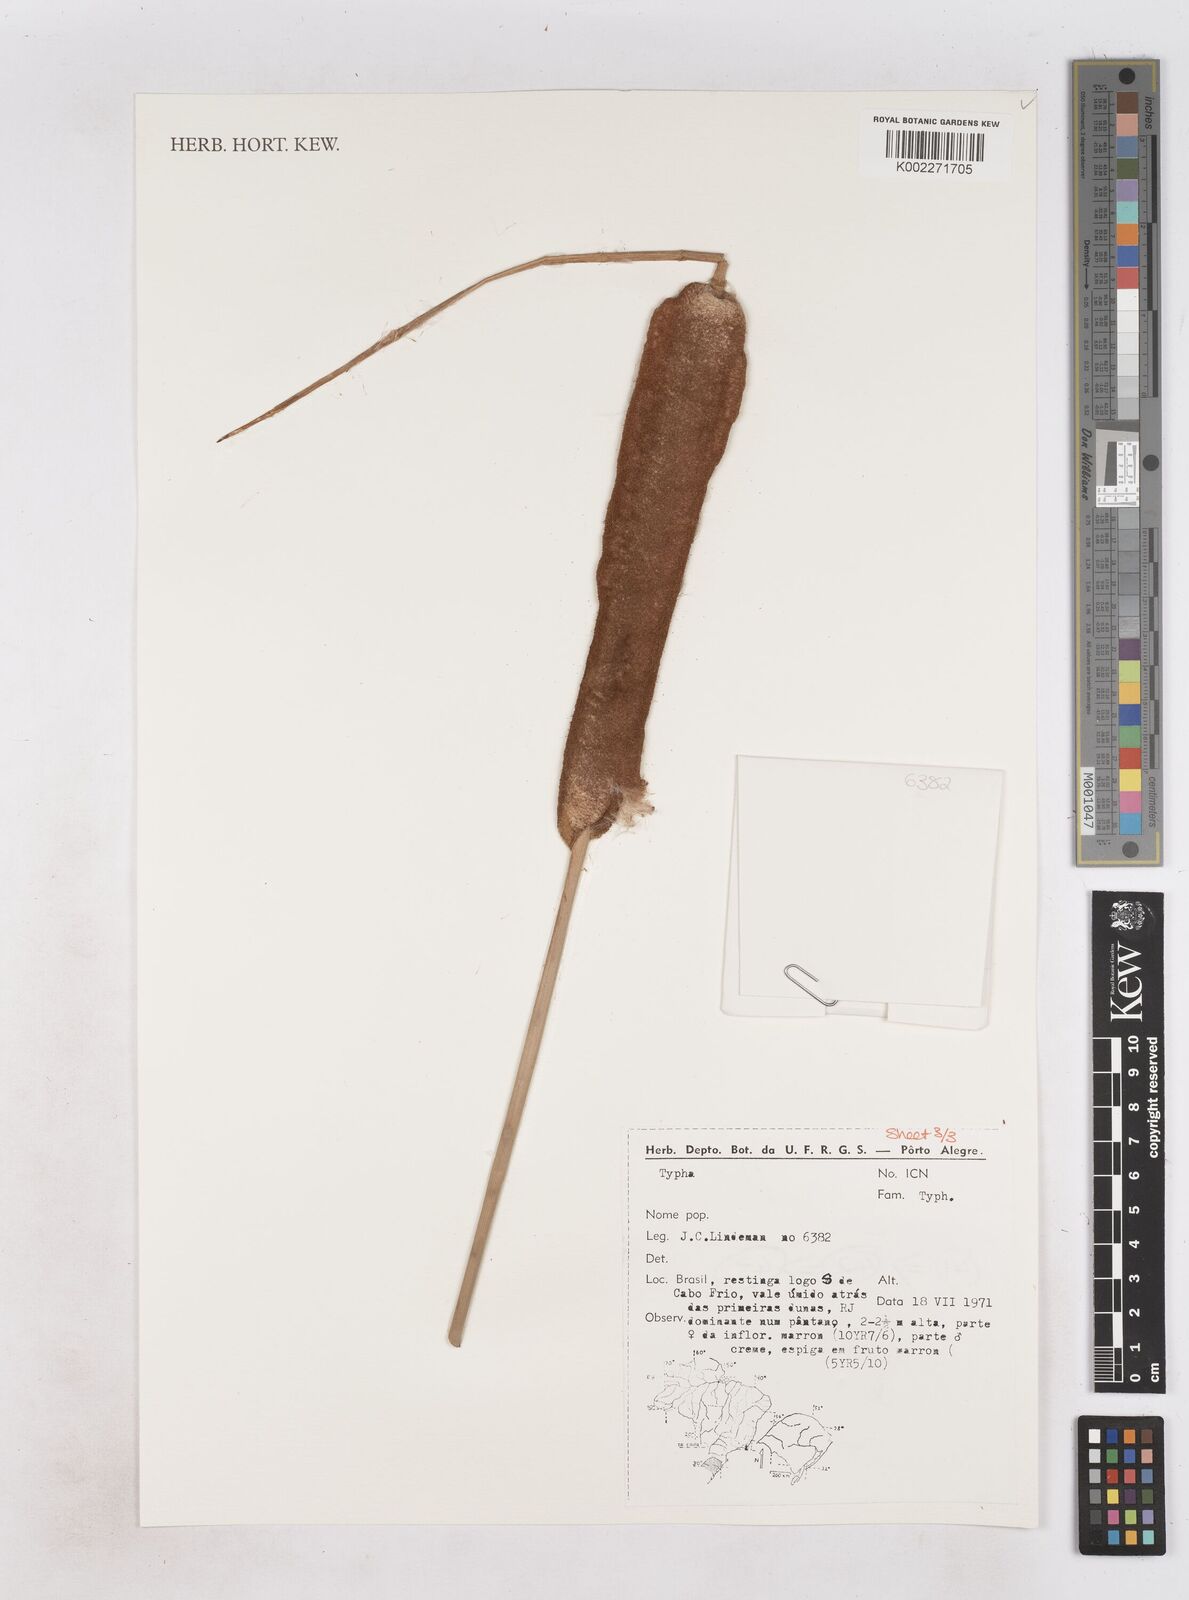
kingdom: Plantae
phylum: Tracheophyta
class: Liliopsida
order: Poales
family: Typhaceae
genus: Typha
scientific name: Typha
